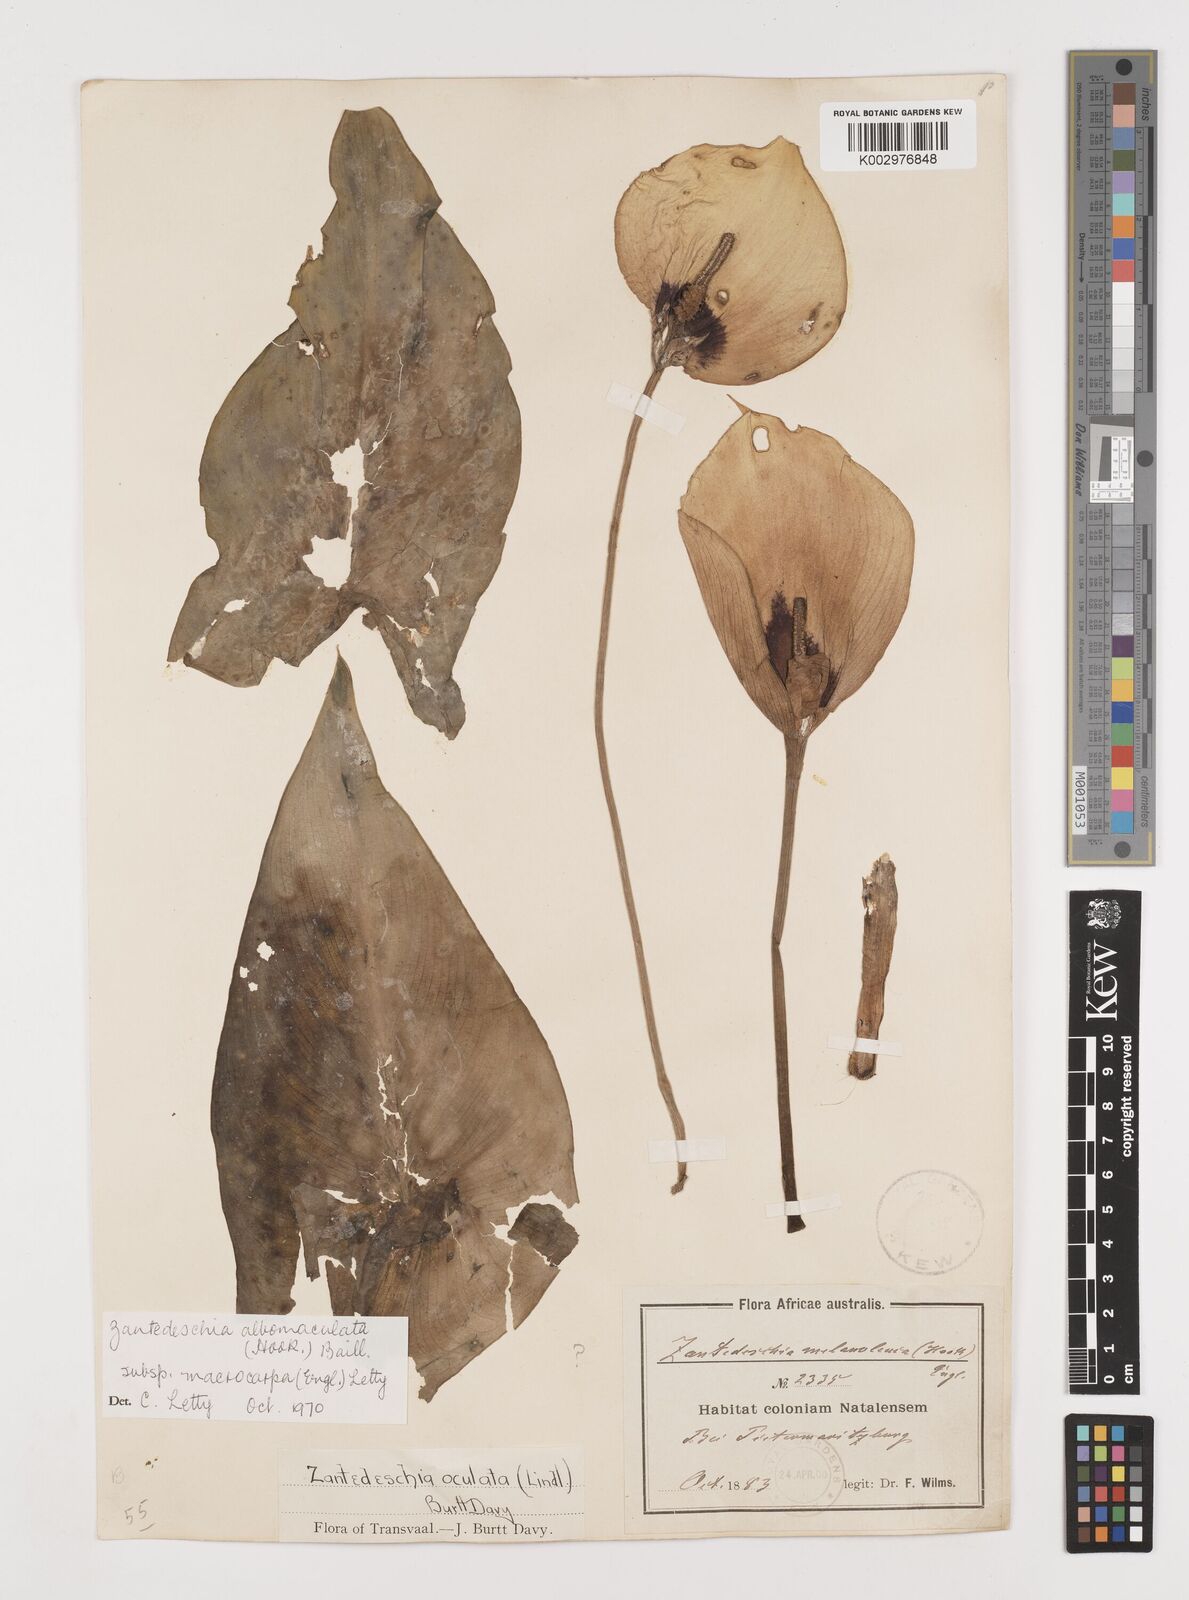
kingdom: Plantae
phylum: Tracheophyta
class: Liliopsida
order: Alismatales
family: Araceae
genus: Zantedeschia
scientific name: Zantedeschia albomaculata
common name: Spotted calla lily
